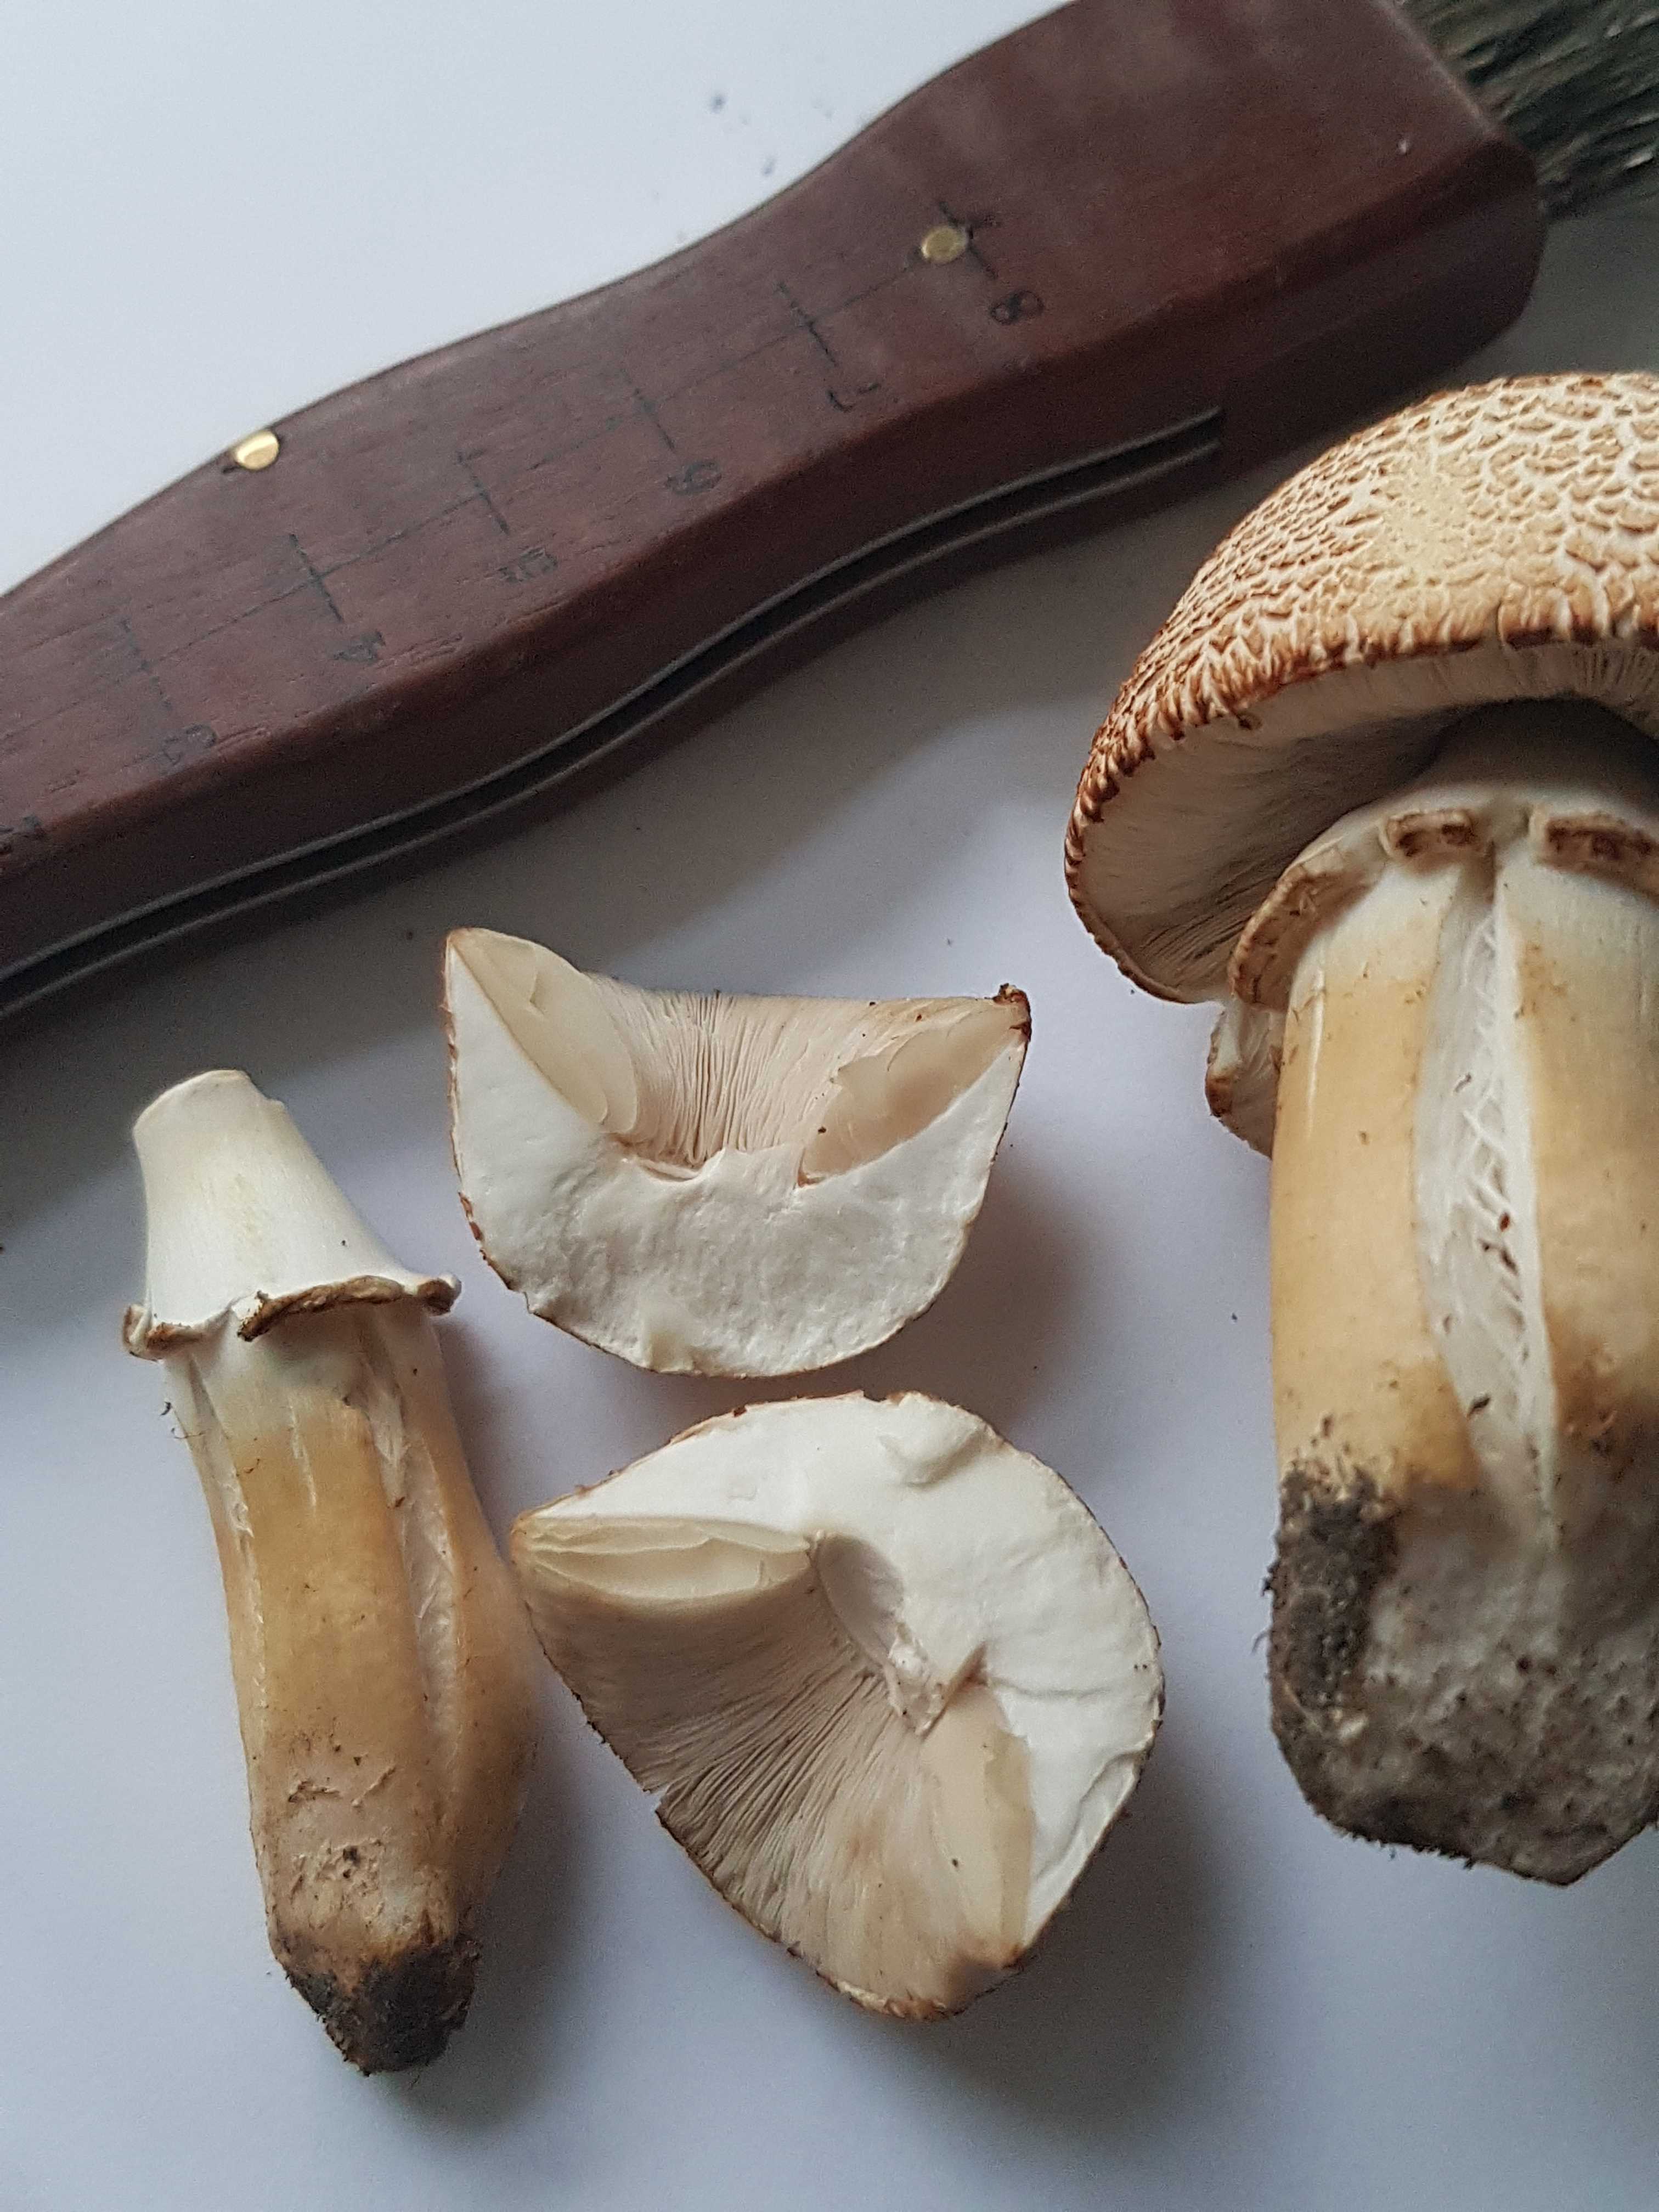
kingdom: Fungi
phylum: Basidiomycota
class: Agaricomycetes
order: Agaricales
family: Agaricaceae
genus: Agaricus
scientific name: Agaricus arvensis
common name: ager-champignon
